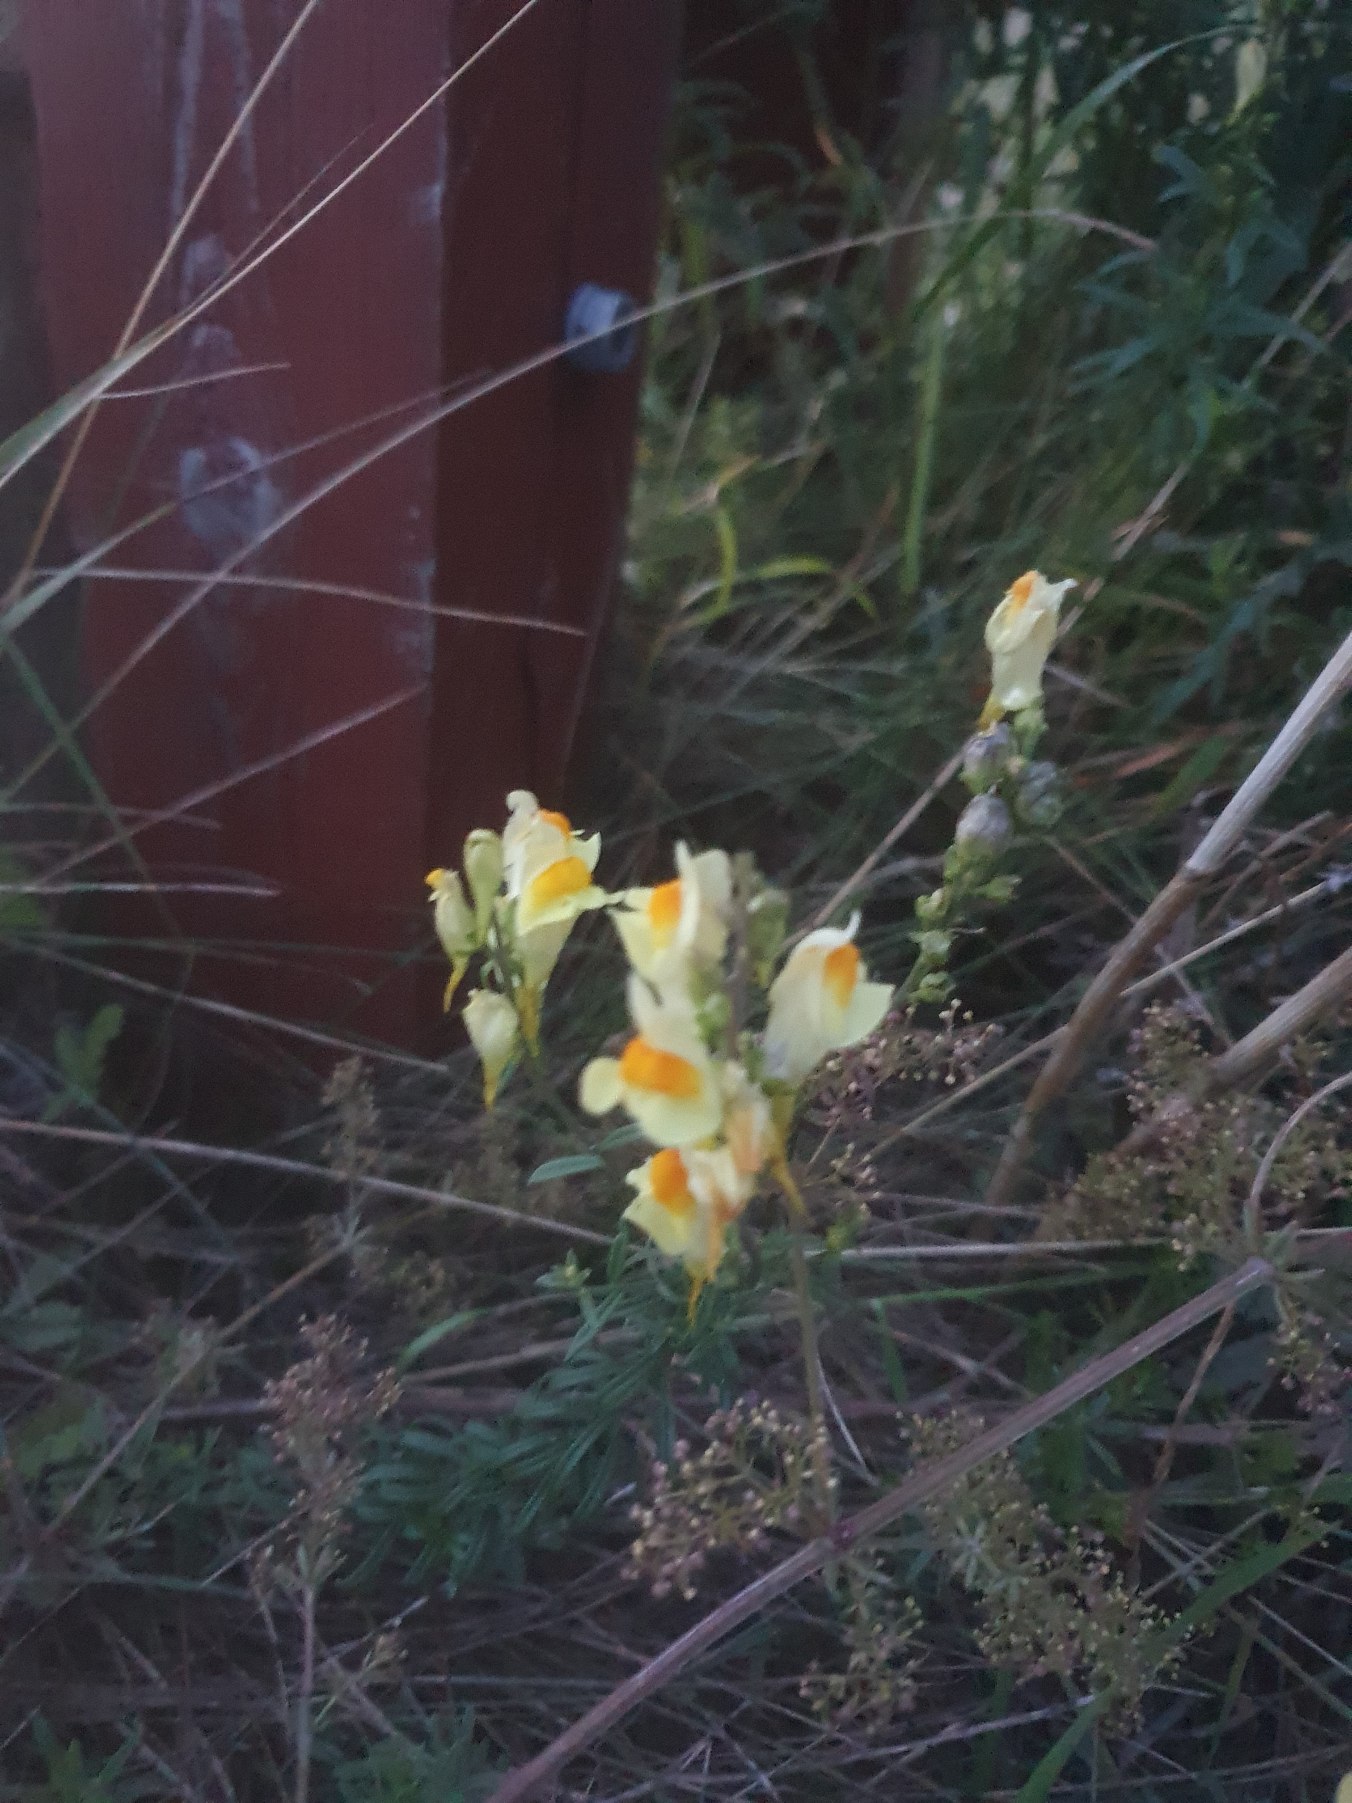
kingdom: Plantae
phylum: Tracheophyta
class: Magnoliopsida
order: Lamiales
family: Plantaginaceae
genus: Linaria
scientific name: Linaria vulgaris
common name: Almindelig torskemund
